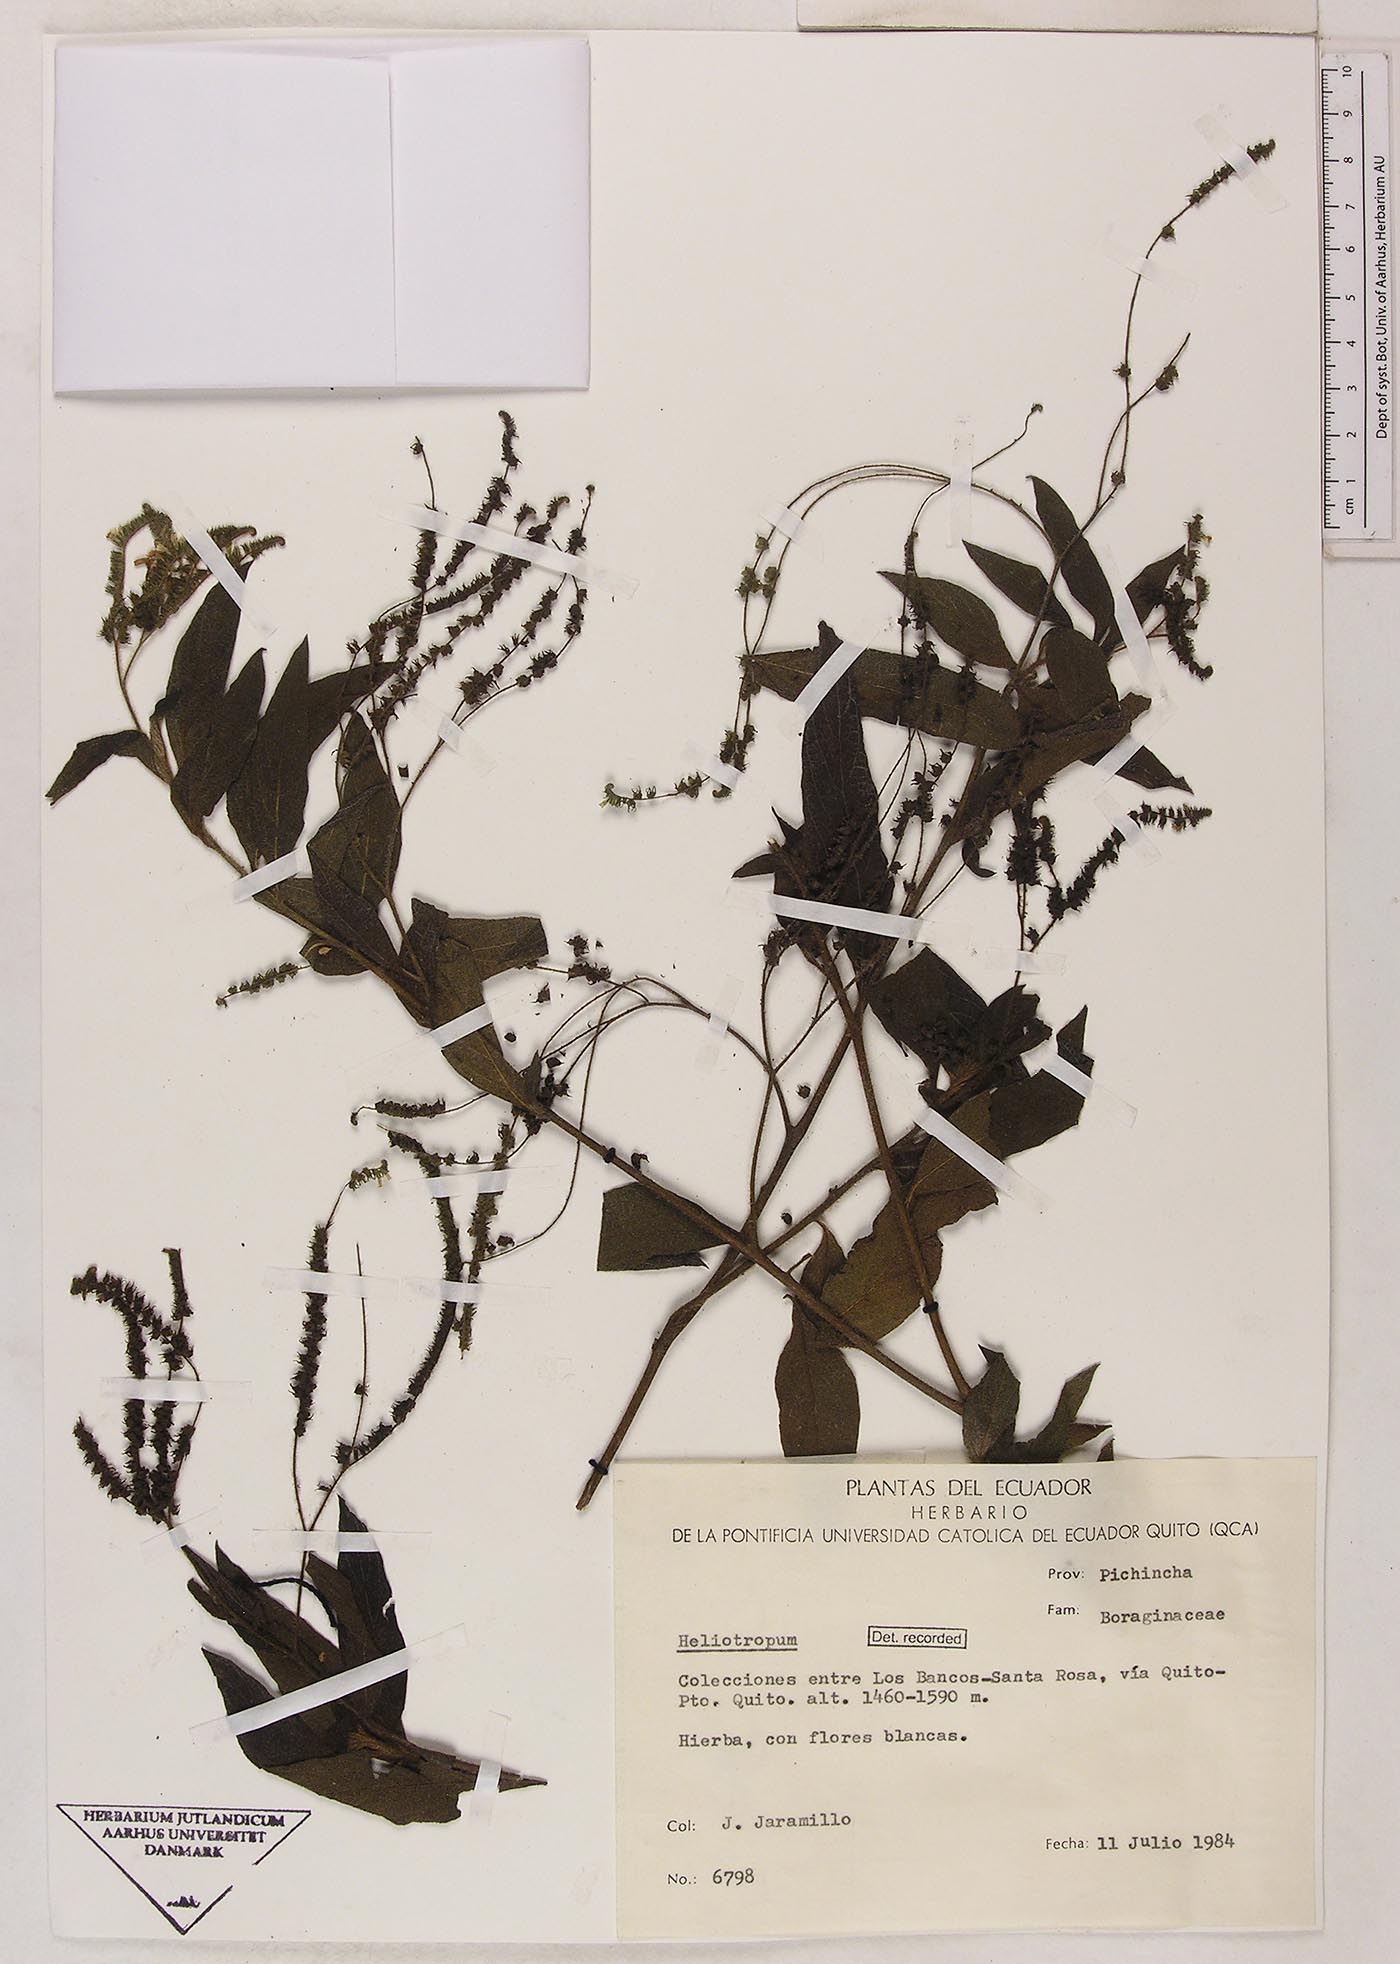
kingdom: Plantae
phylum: Tracheophyta
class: Magnoliopsida
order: Boraginales
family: Heliotropiaceae
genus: Heliotropium
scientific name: Heliotropium rufipilum
